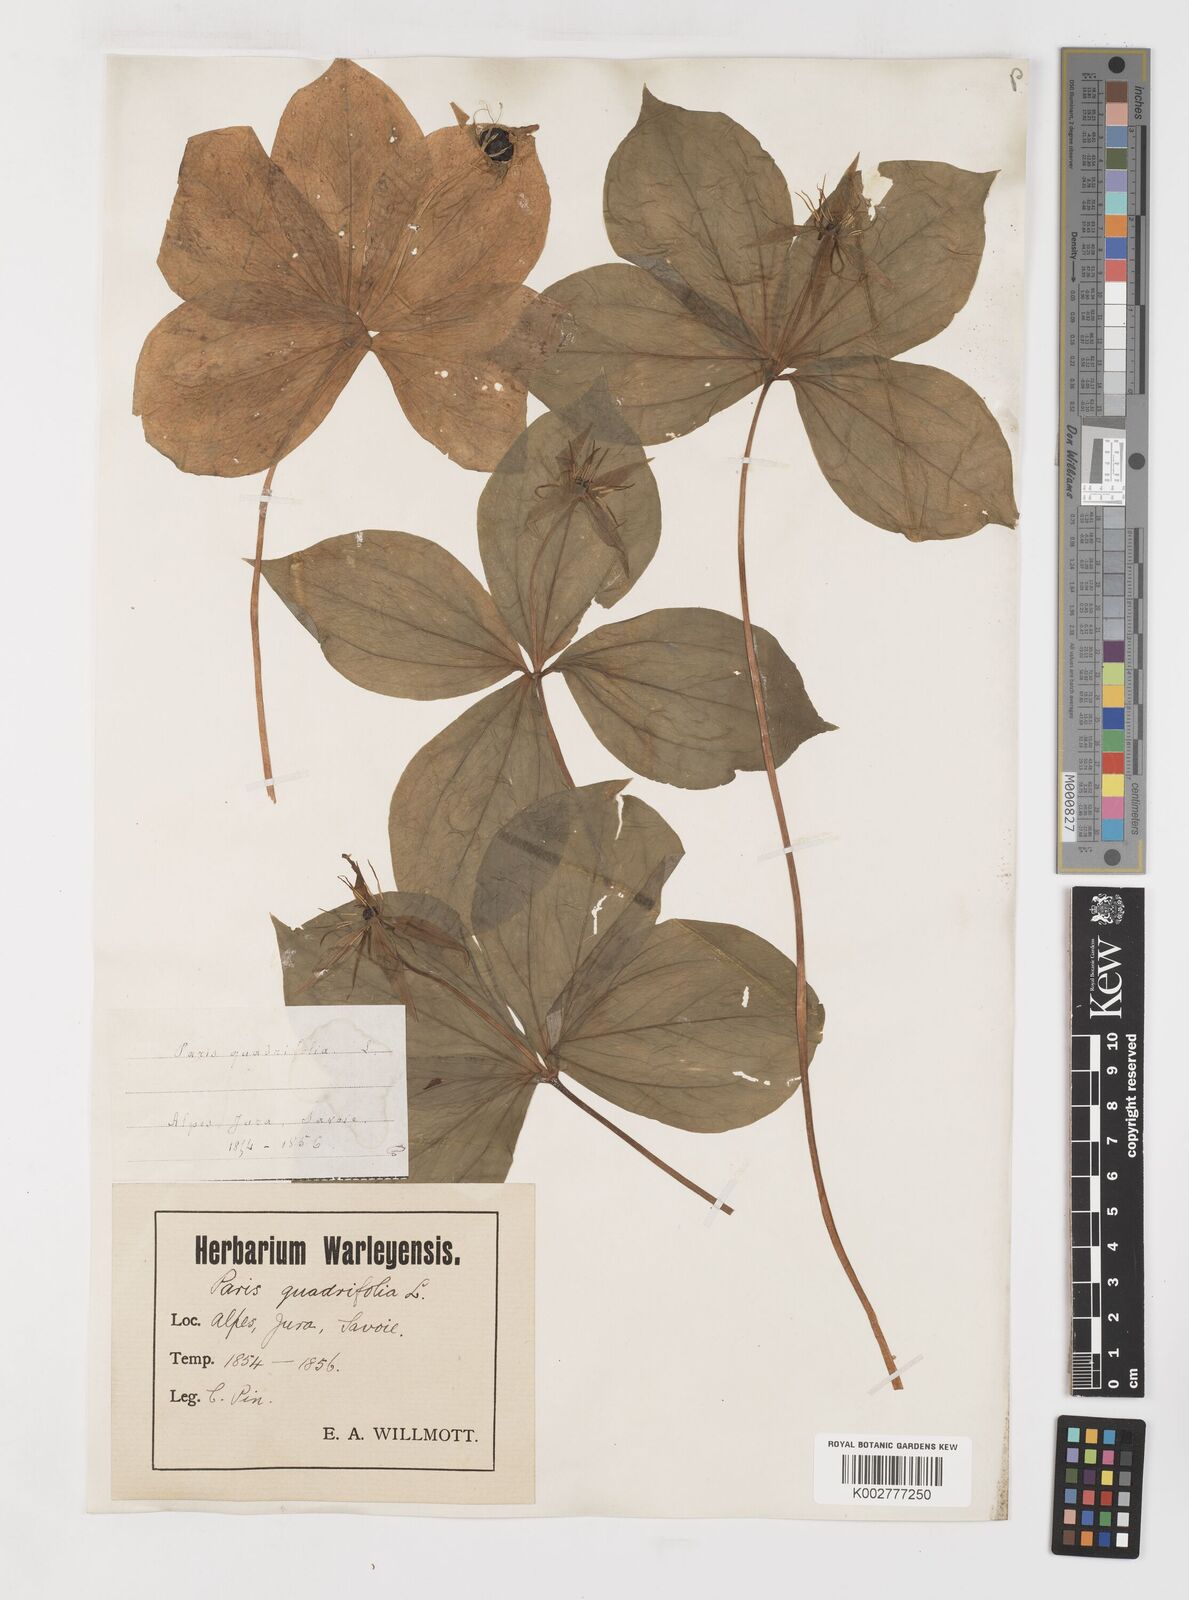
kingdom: Plantae
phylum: Tracheophyta
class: Liliopsida
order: Liliales
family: Melanthiaceae
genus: Paris
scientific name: Paris
